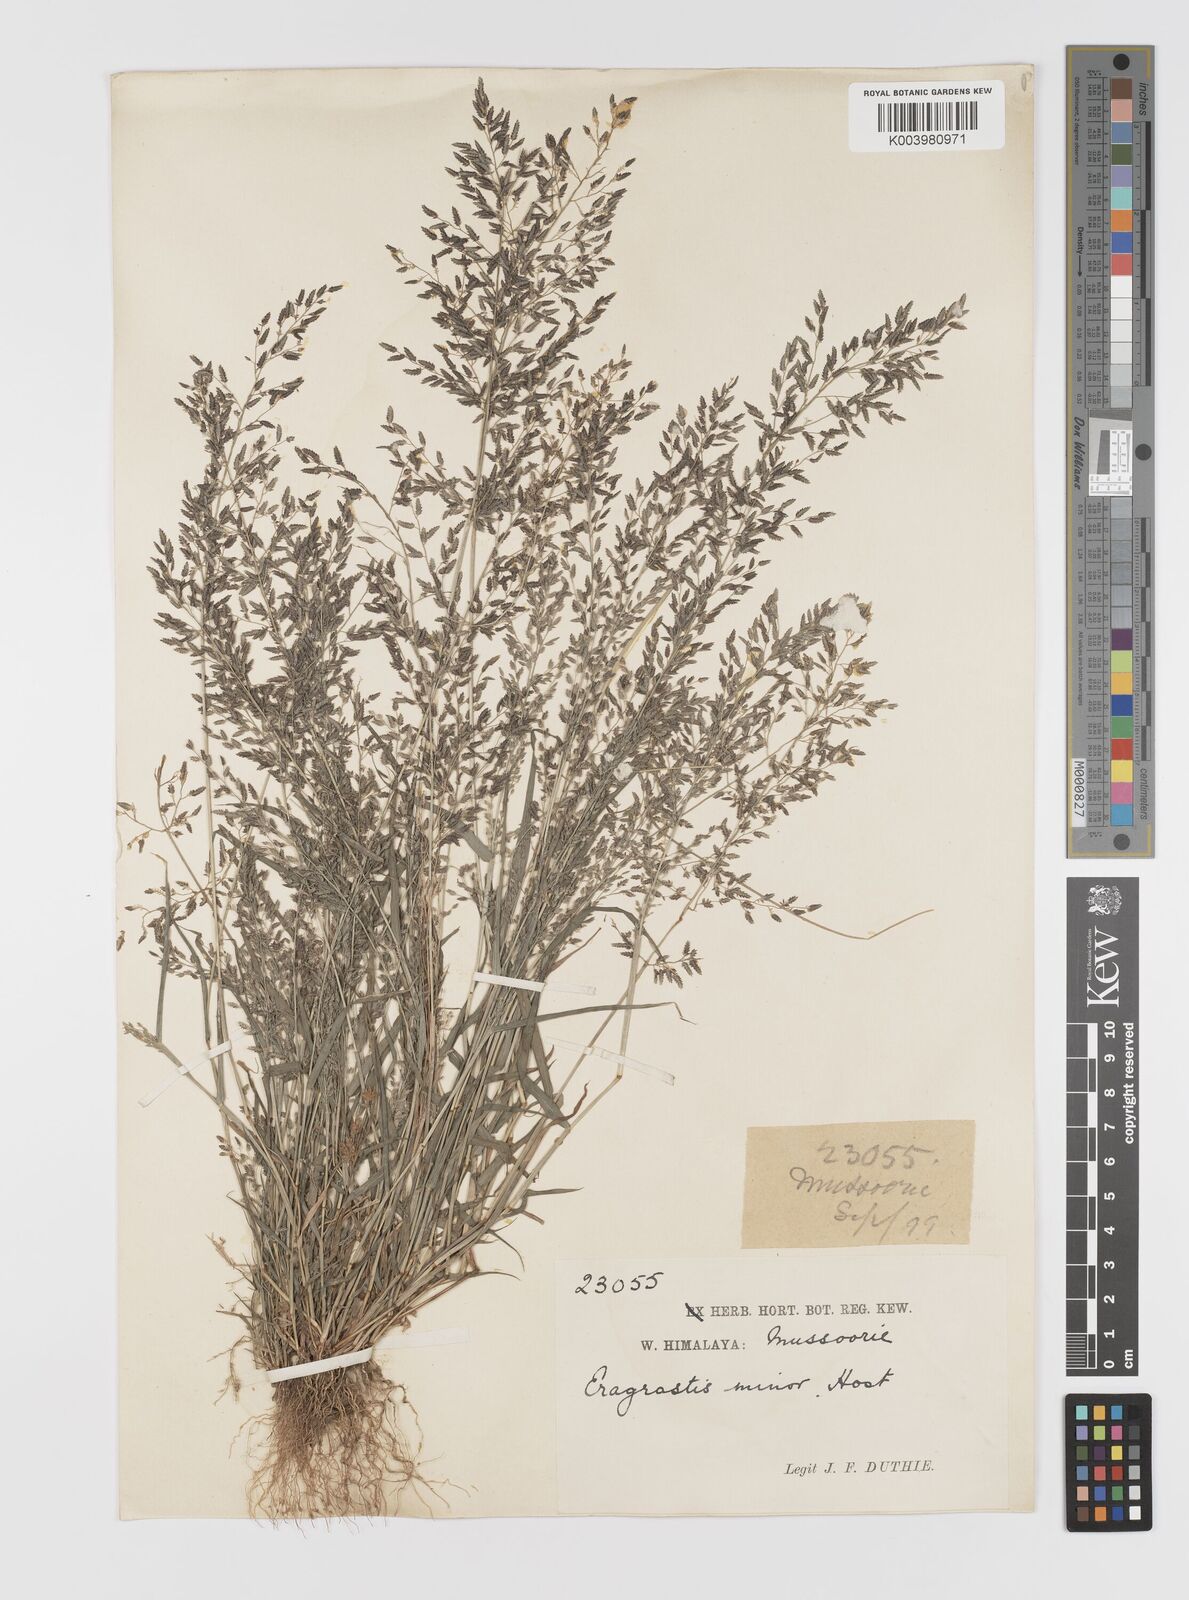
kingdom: Plantae
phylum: Tracheophyta
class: Liliopsida
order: Poales
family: Poaceae
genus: Eragrostis
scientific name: Eragrostis minor
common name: Small love-grass
